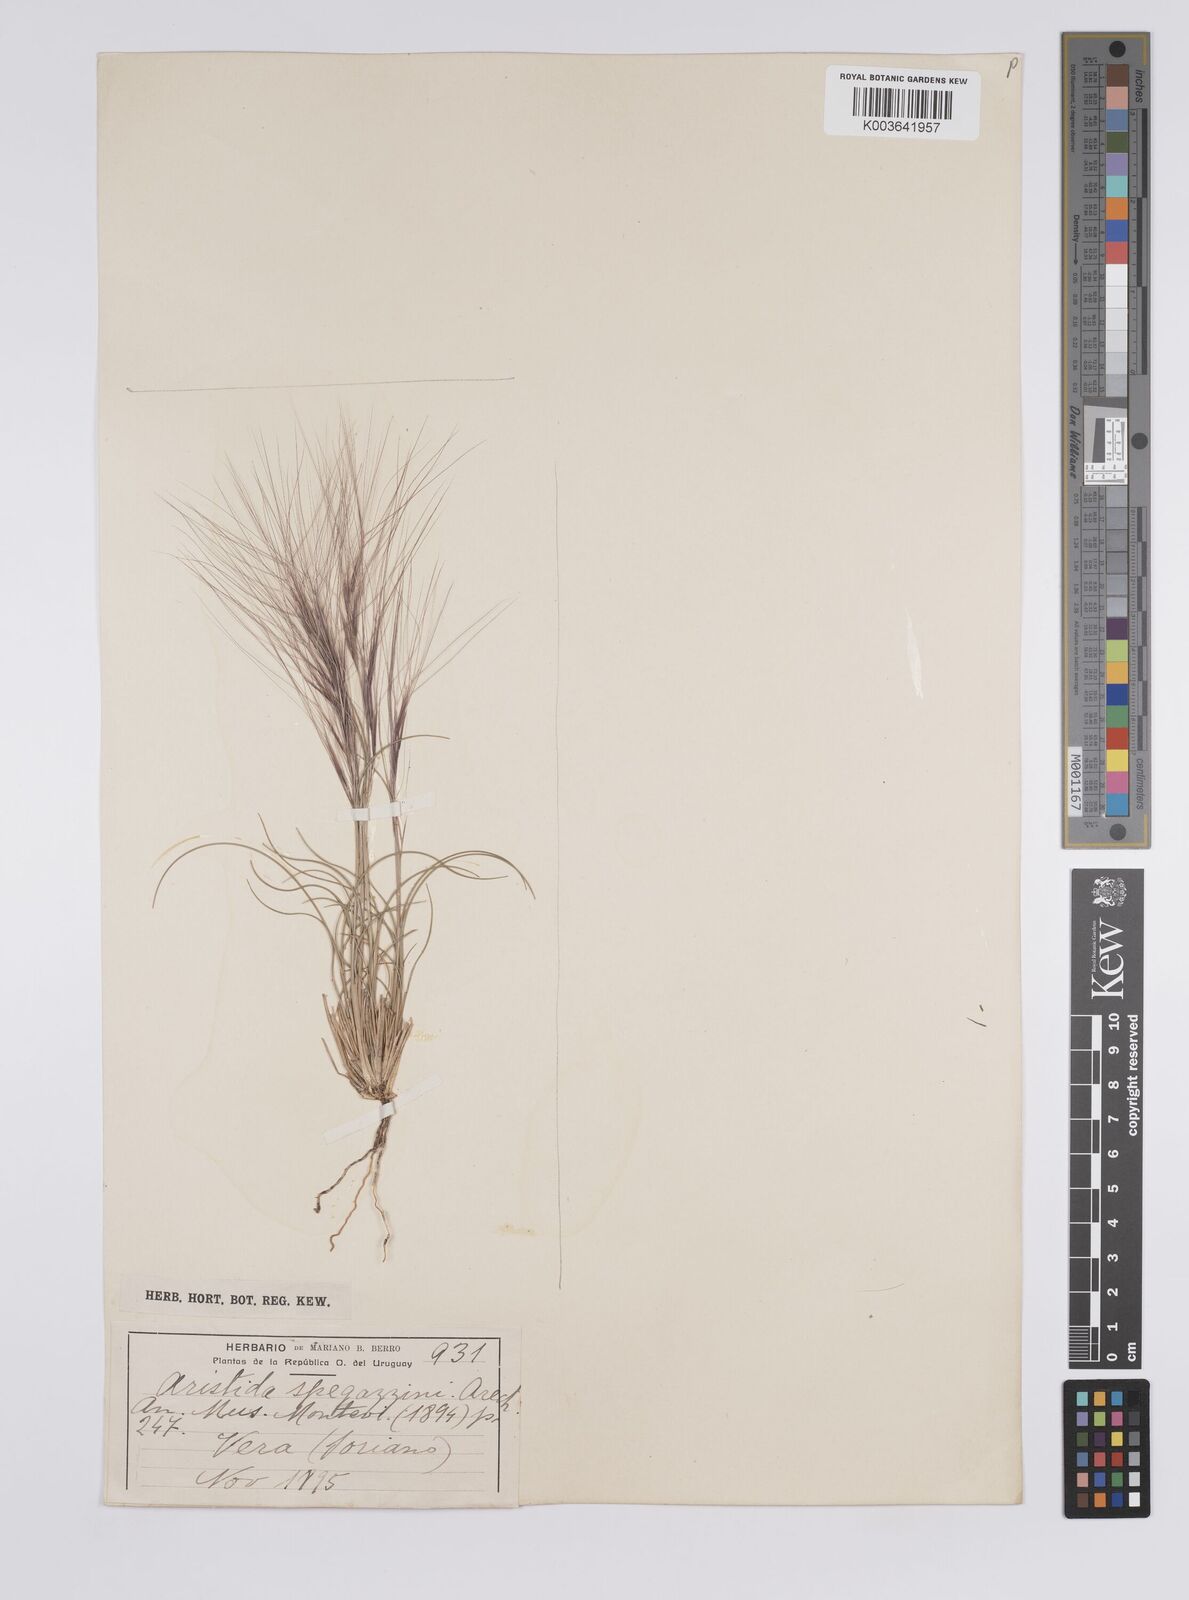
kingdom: Plantae
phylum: Tracheophyta
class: Liliopsida
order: Poales
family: Poaceae
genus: Aristida
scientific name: Aristida spegazzinii
